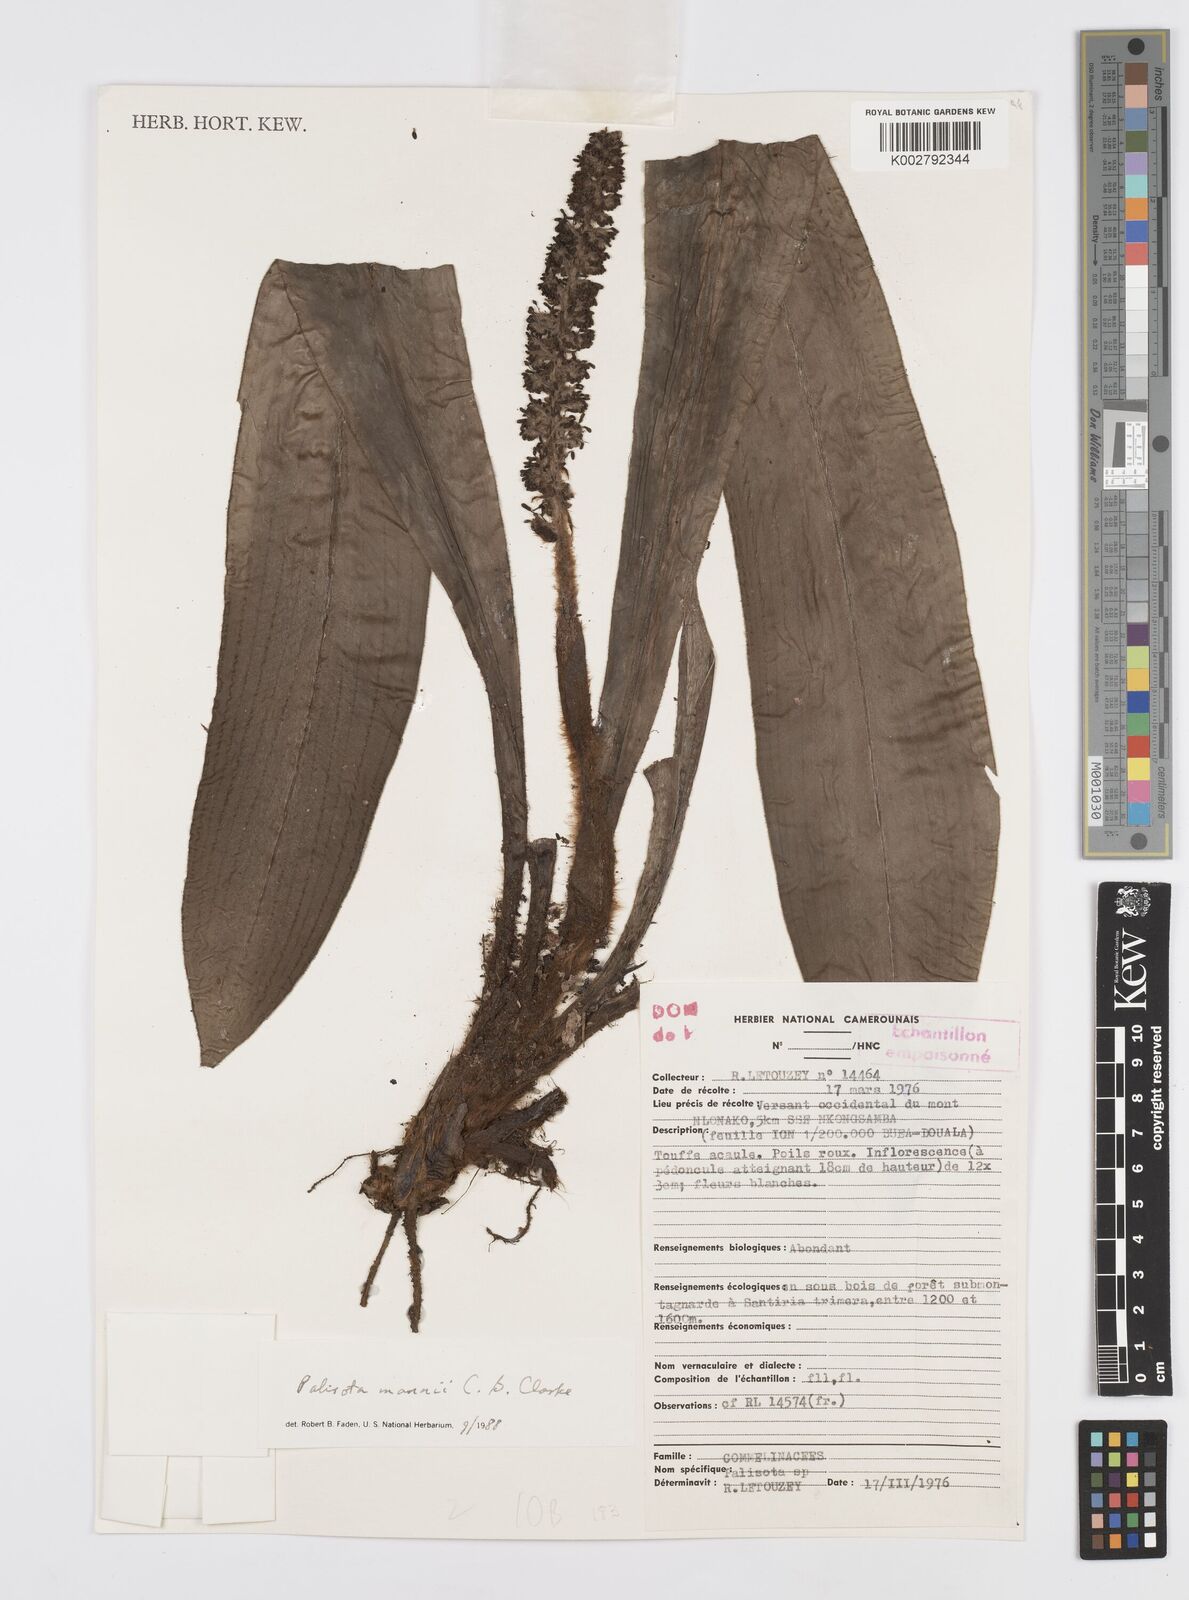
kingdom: Plantae
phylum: Tracheophyta
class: Liliopsida
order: Commelinales
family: Commelinaceae
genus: Palisota
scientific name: Palisota mannii
